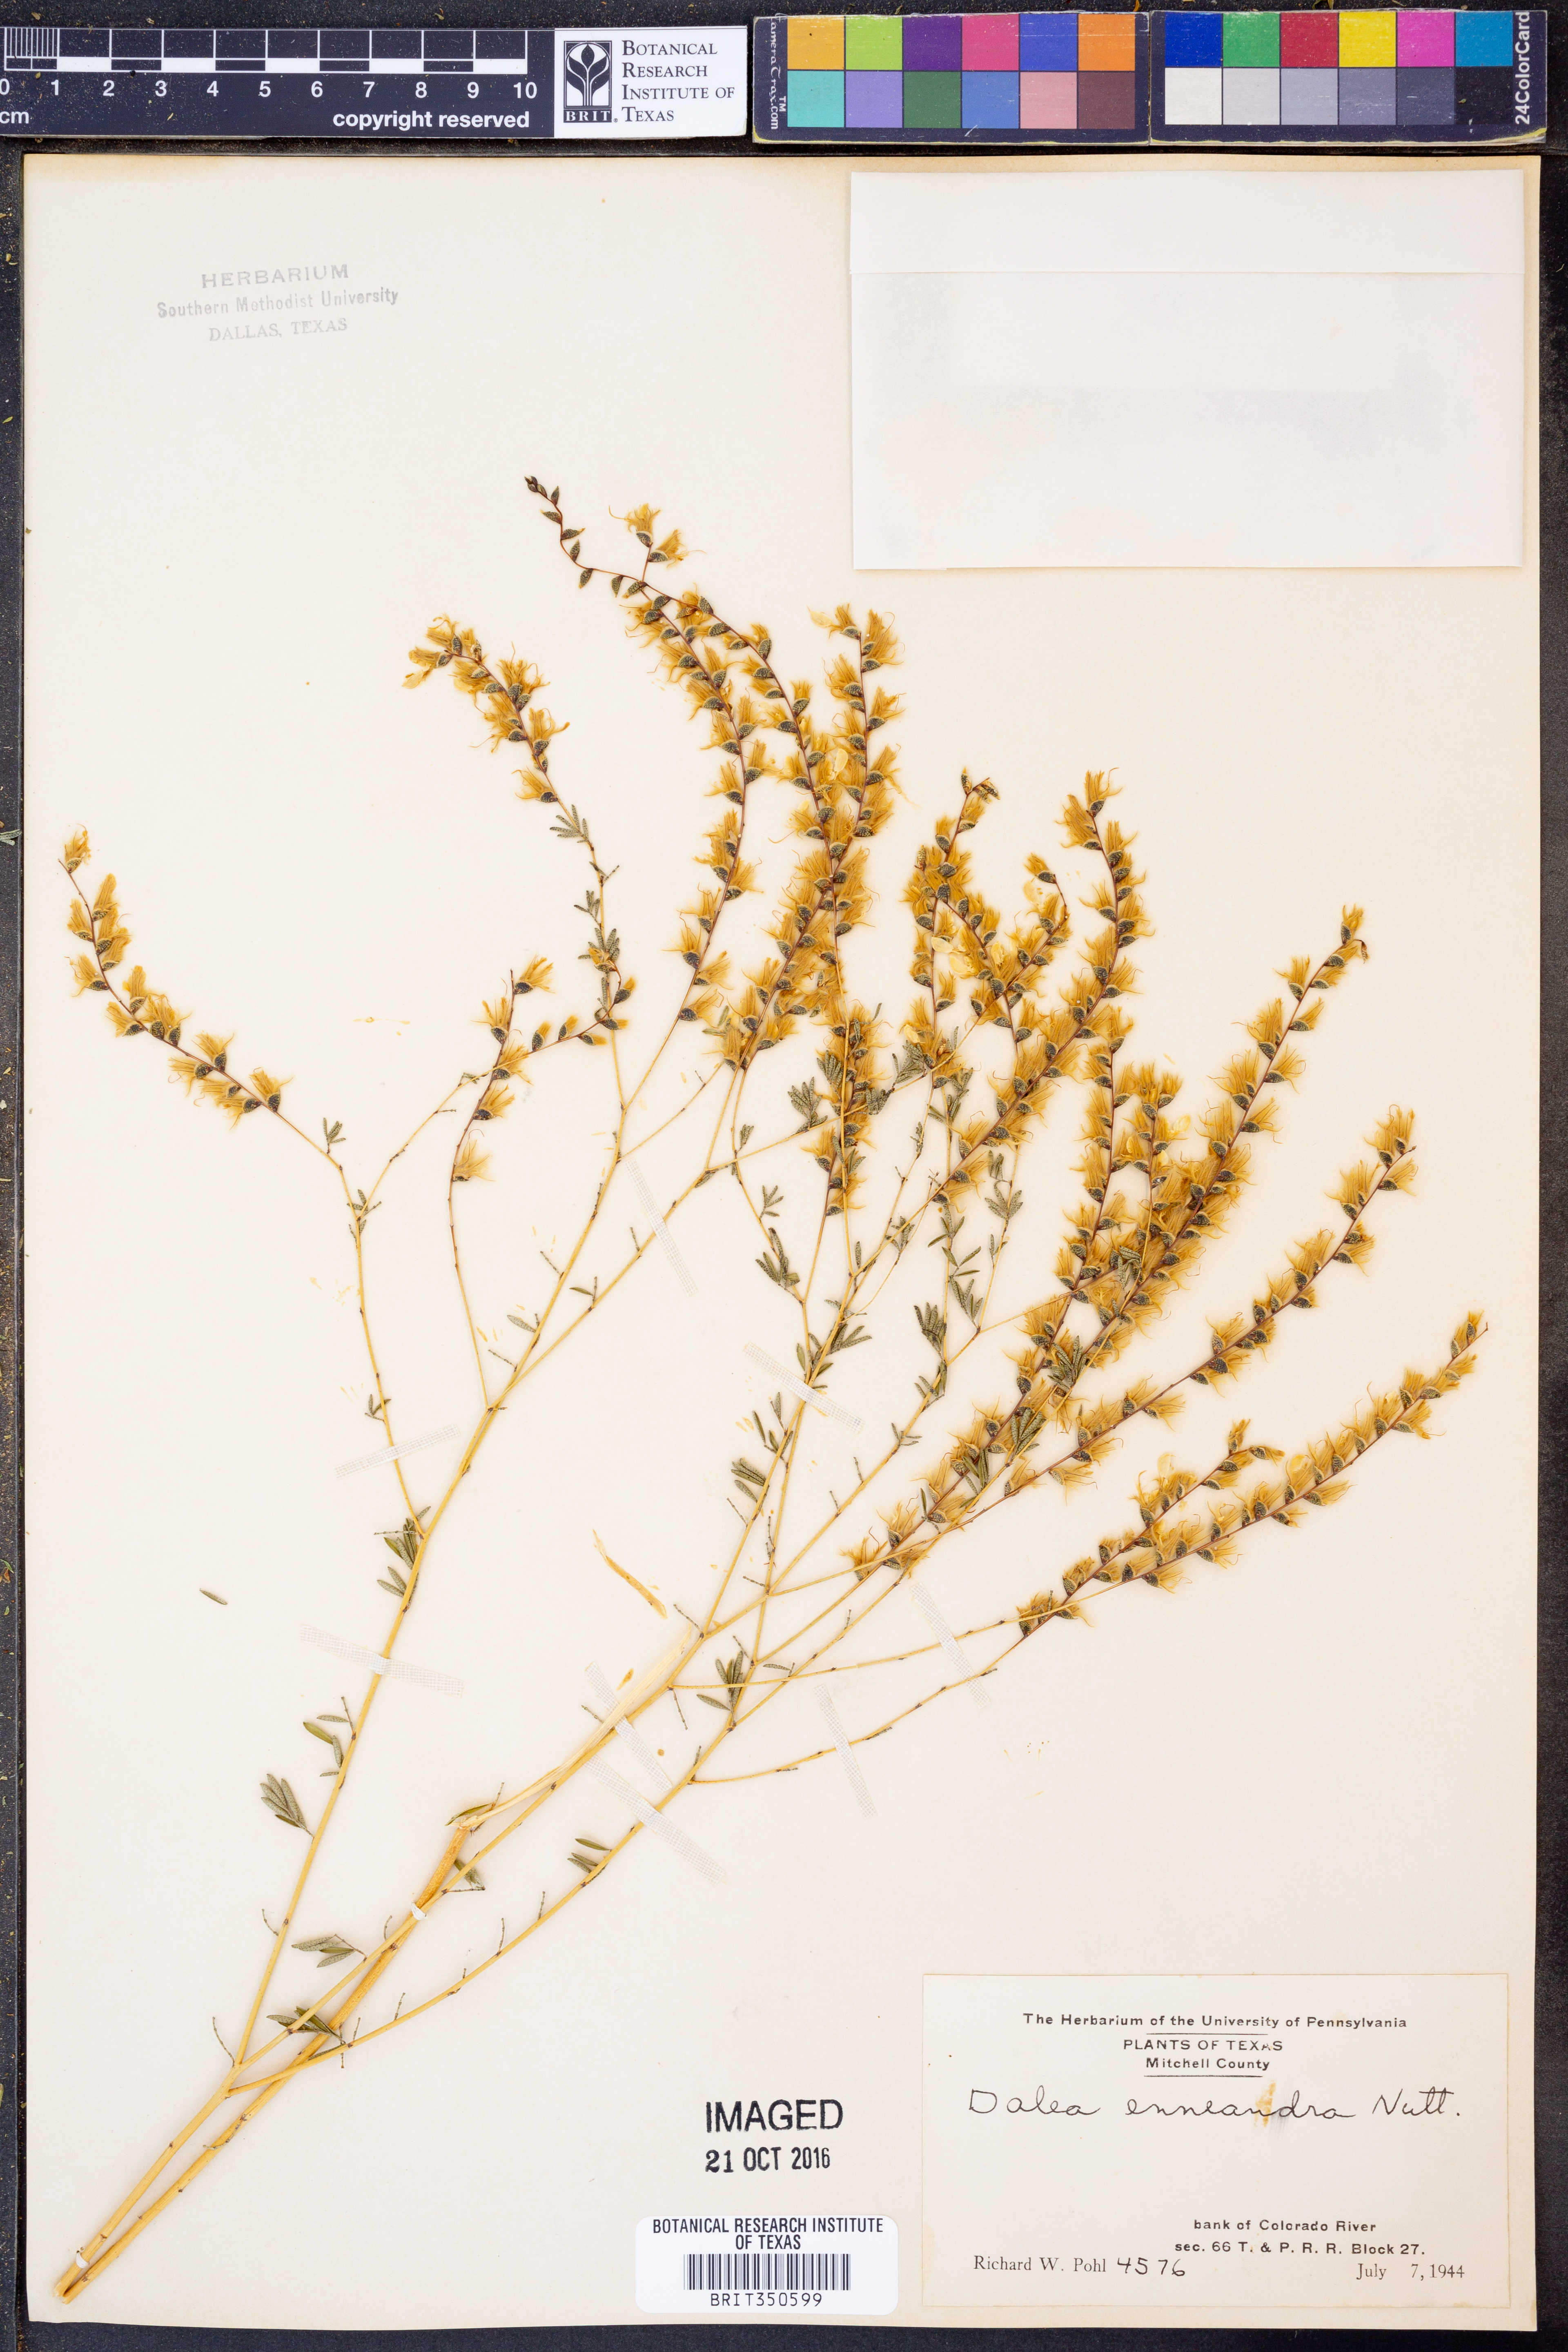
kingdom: Plantae
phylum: Tracheophyta
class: Magnoliopsida
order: Fabales
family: Fabaceae
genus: Dalea
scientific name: Dalea enneandra
